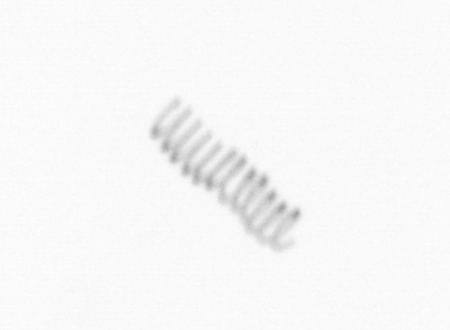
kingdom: Chromista
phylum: Ochrophyta
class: Bacillariophyceae
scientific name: Bacillariophyceae
